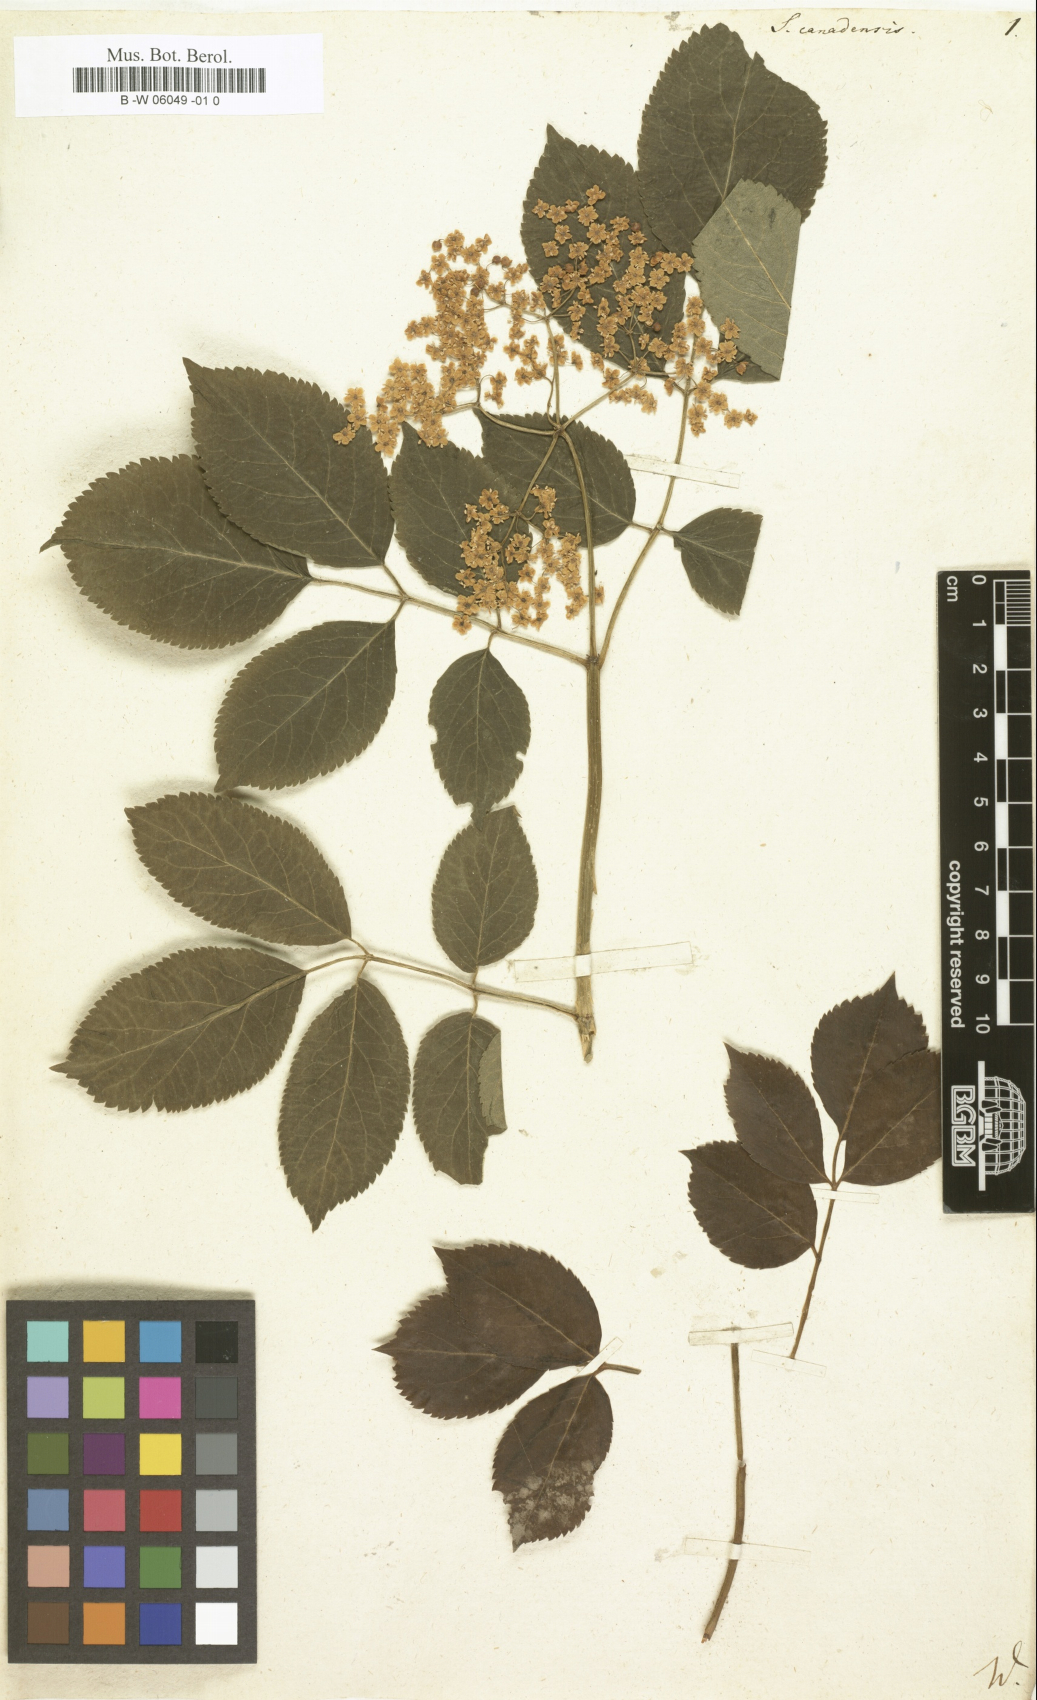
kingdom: Plantae
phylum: Tracheophyta
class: Magnoliopsida
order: Dipsacales
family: Viburnaceae
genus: Sambucus
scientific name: Sambucus canadensis
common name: American elder
